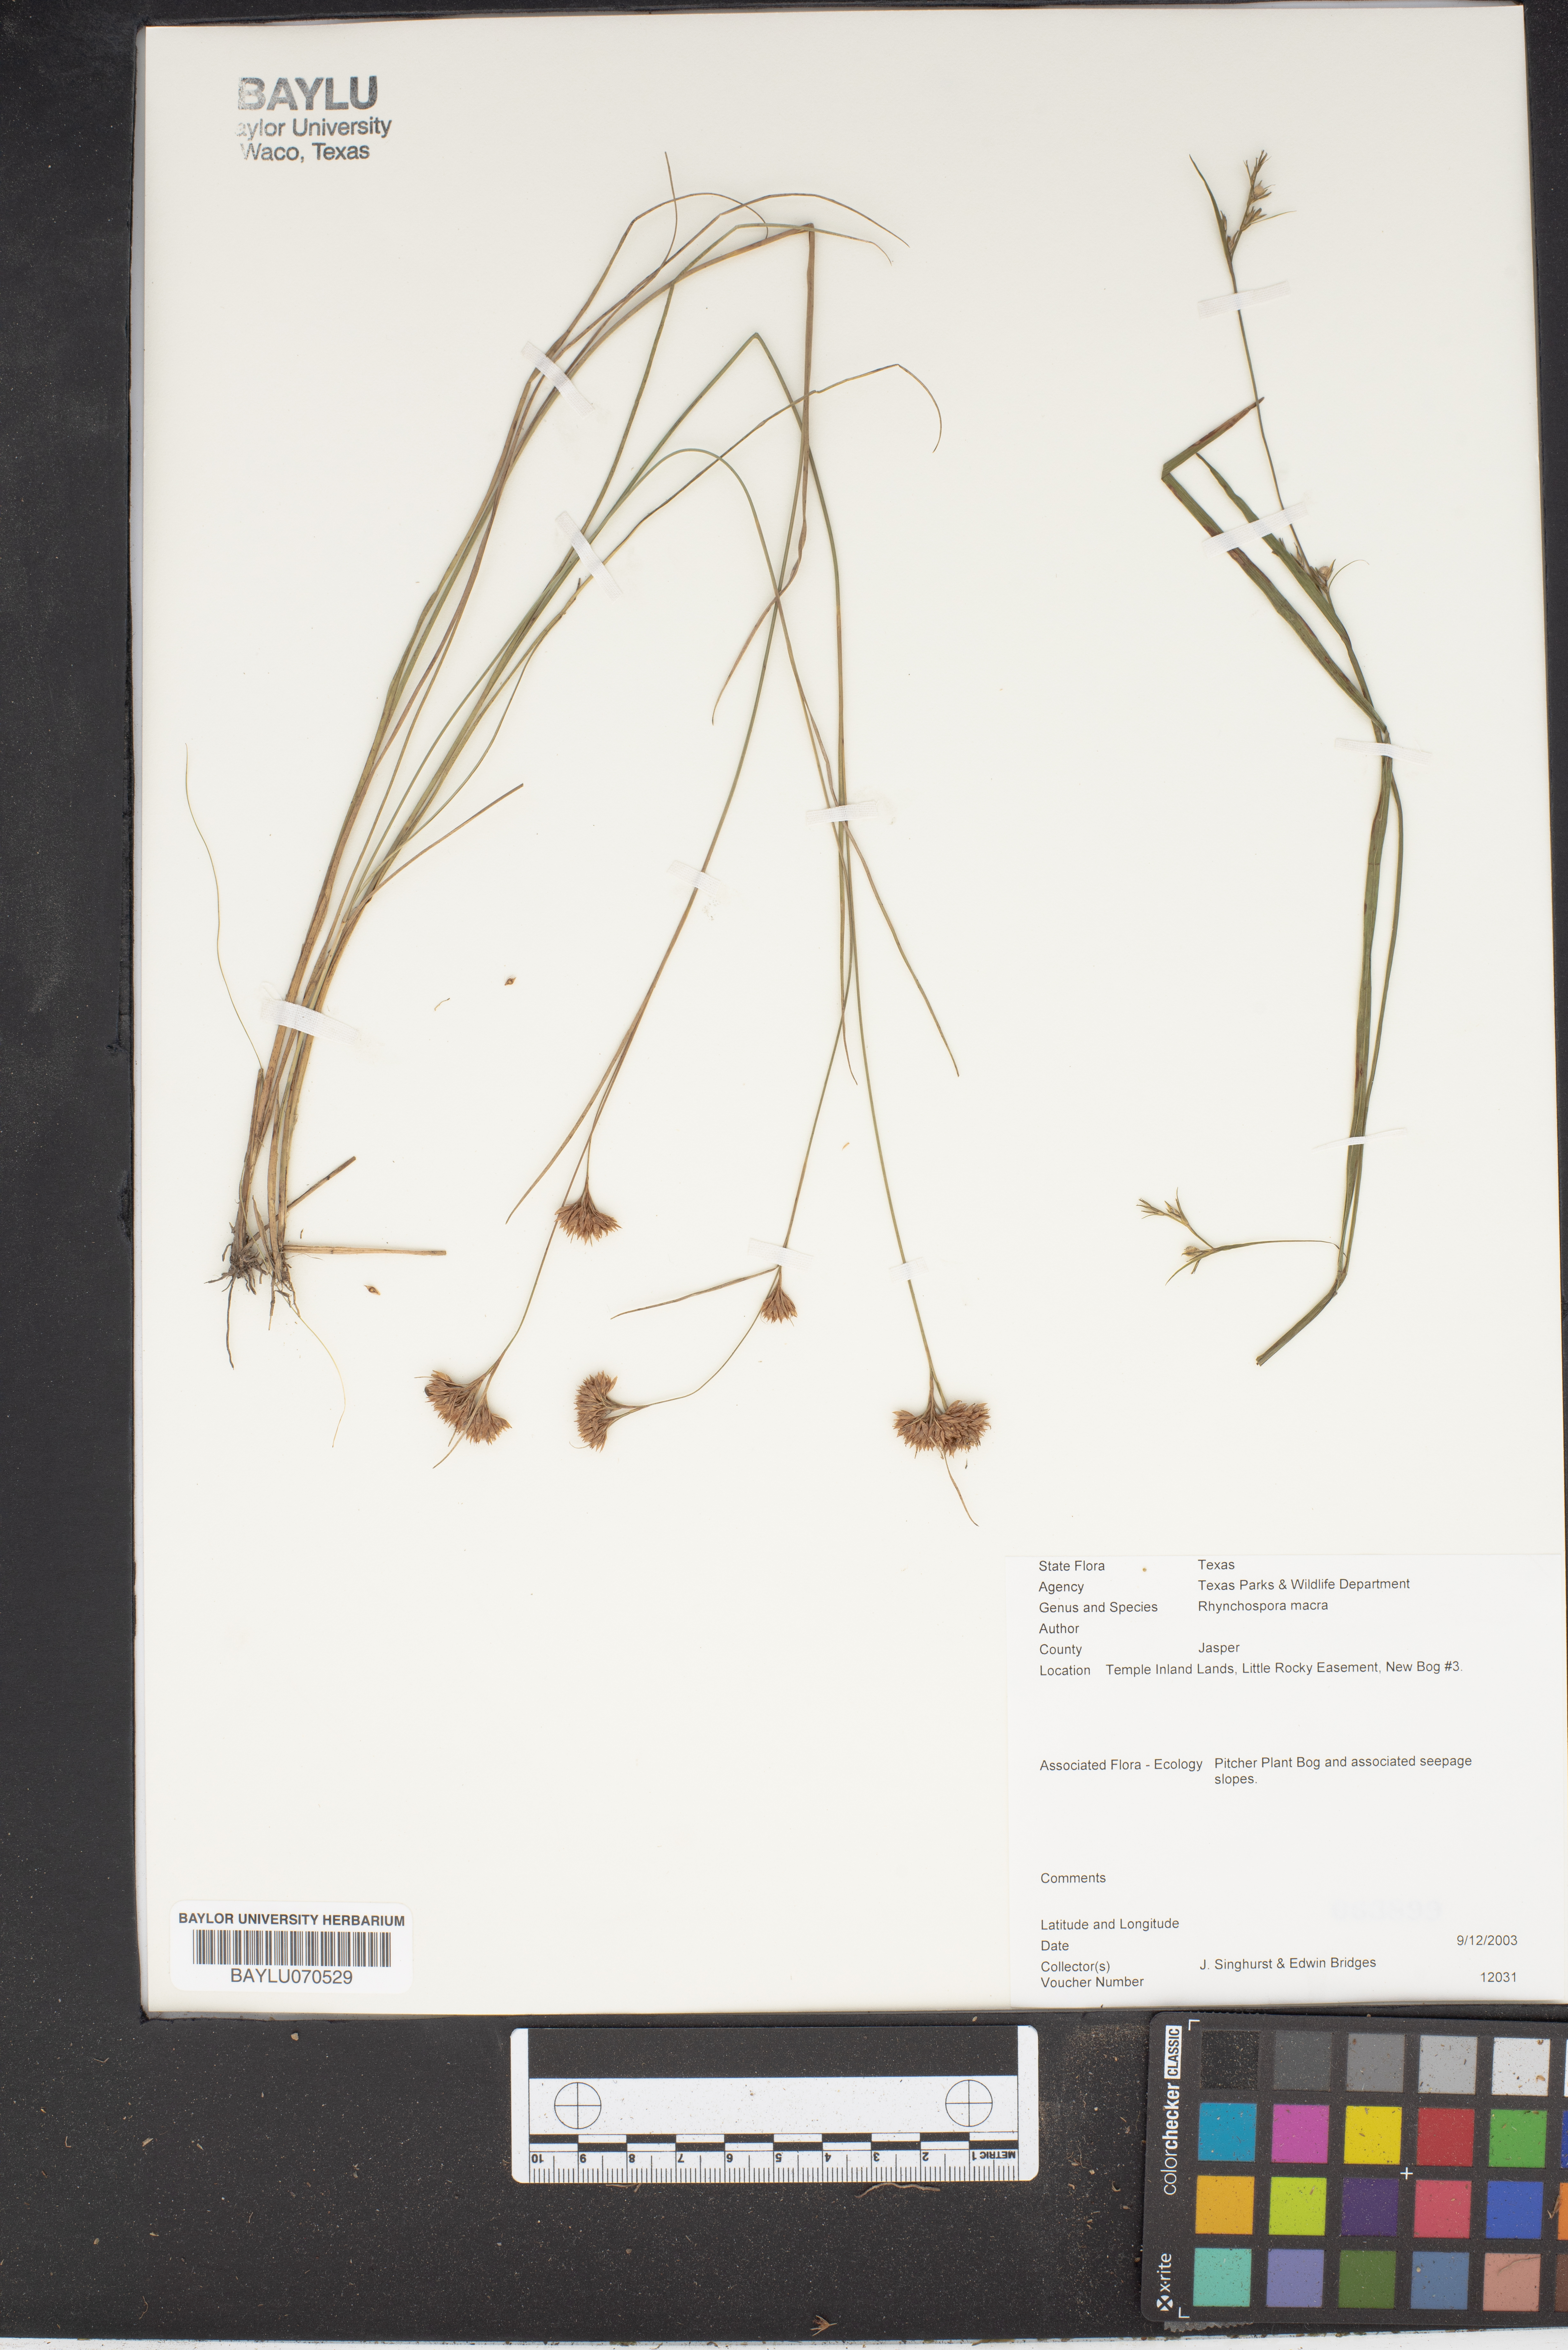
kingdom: Plantae
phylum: Tracheophyta
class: Liliopsida
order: Poales
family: Cyperaceae
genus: Rhynchospora
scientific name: Rhynchospora macra
